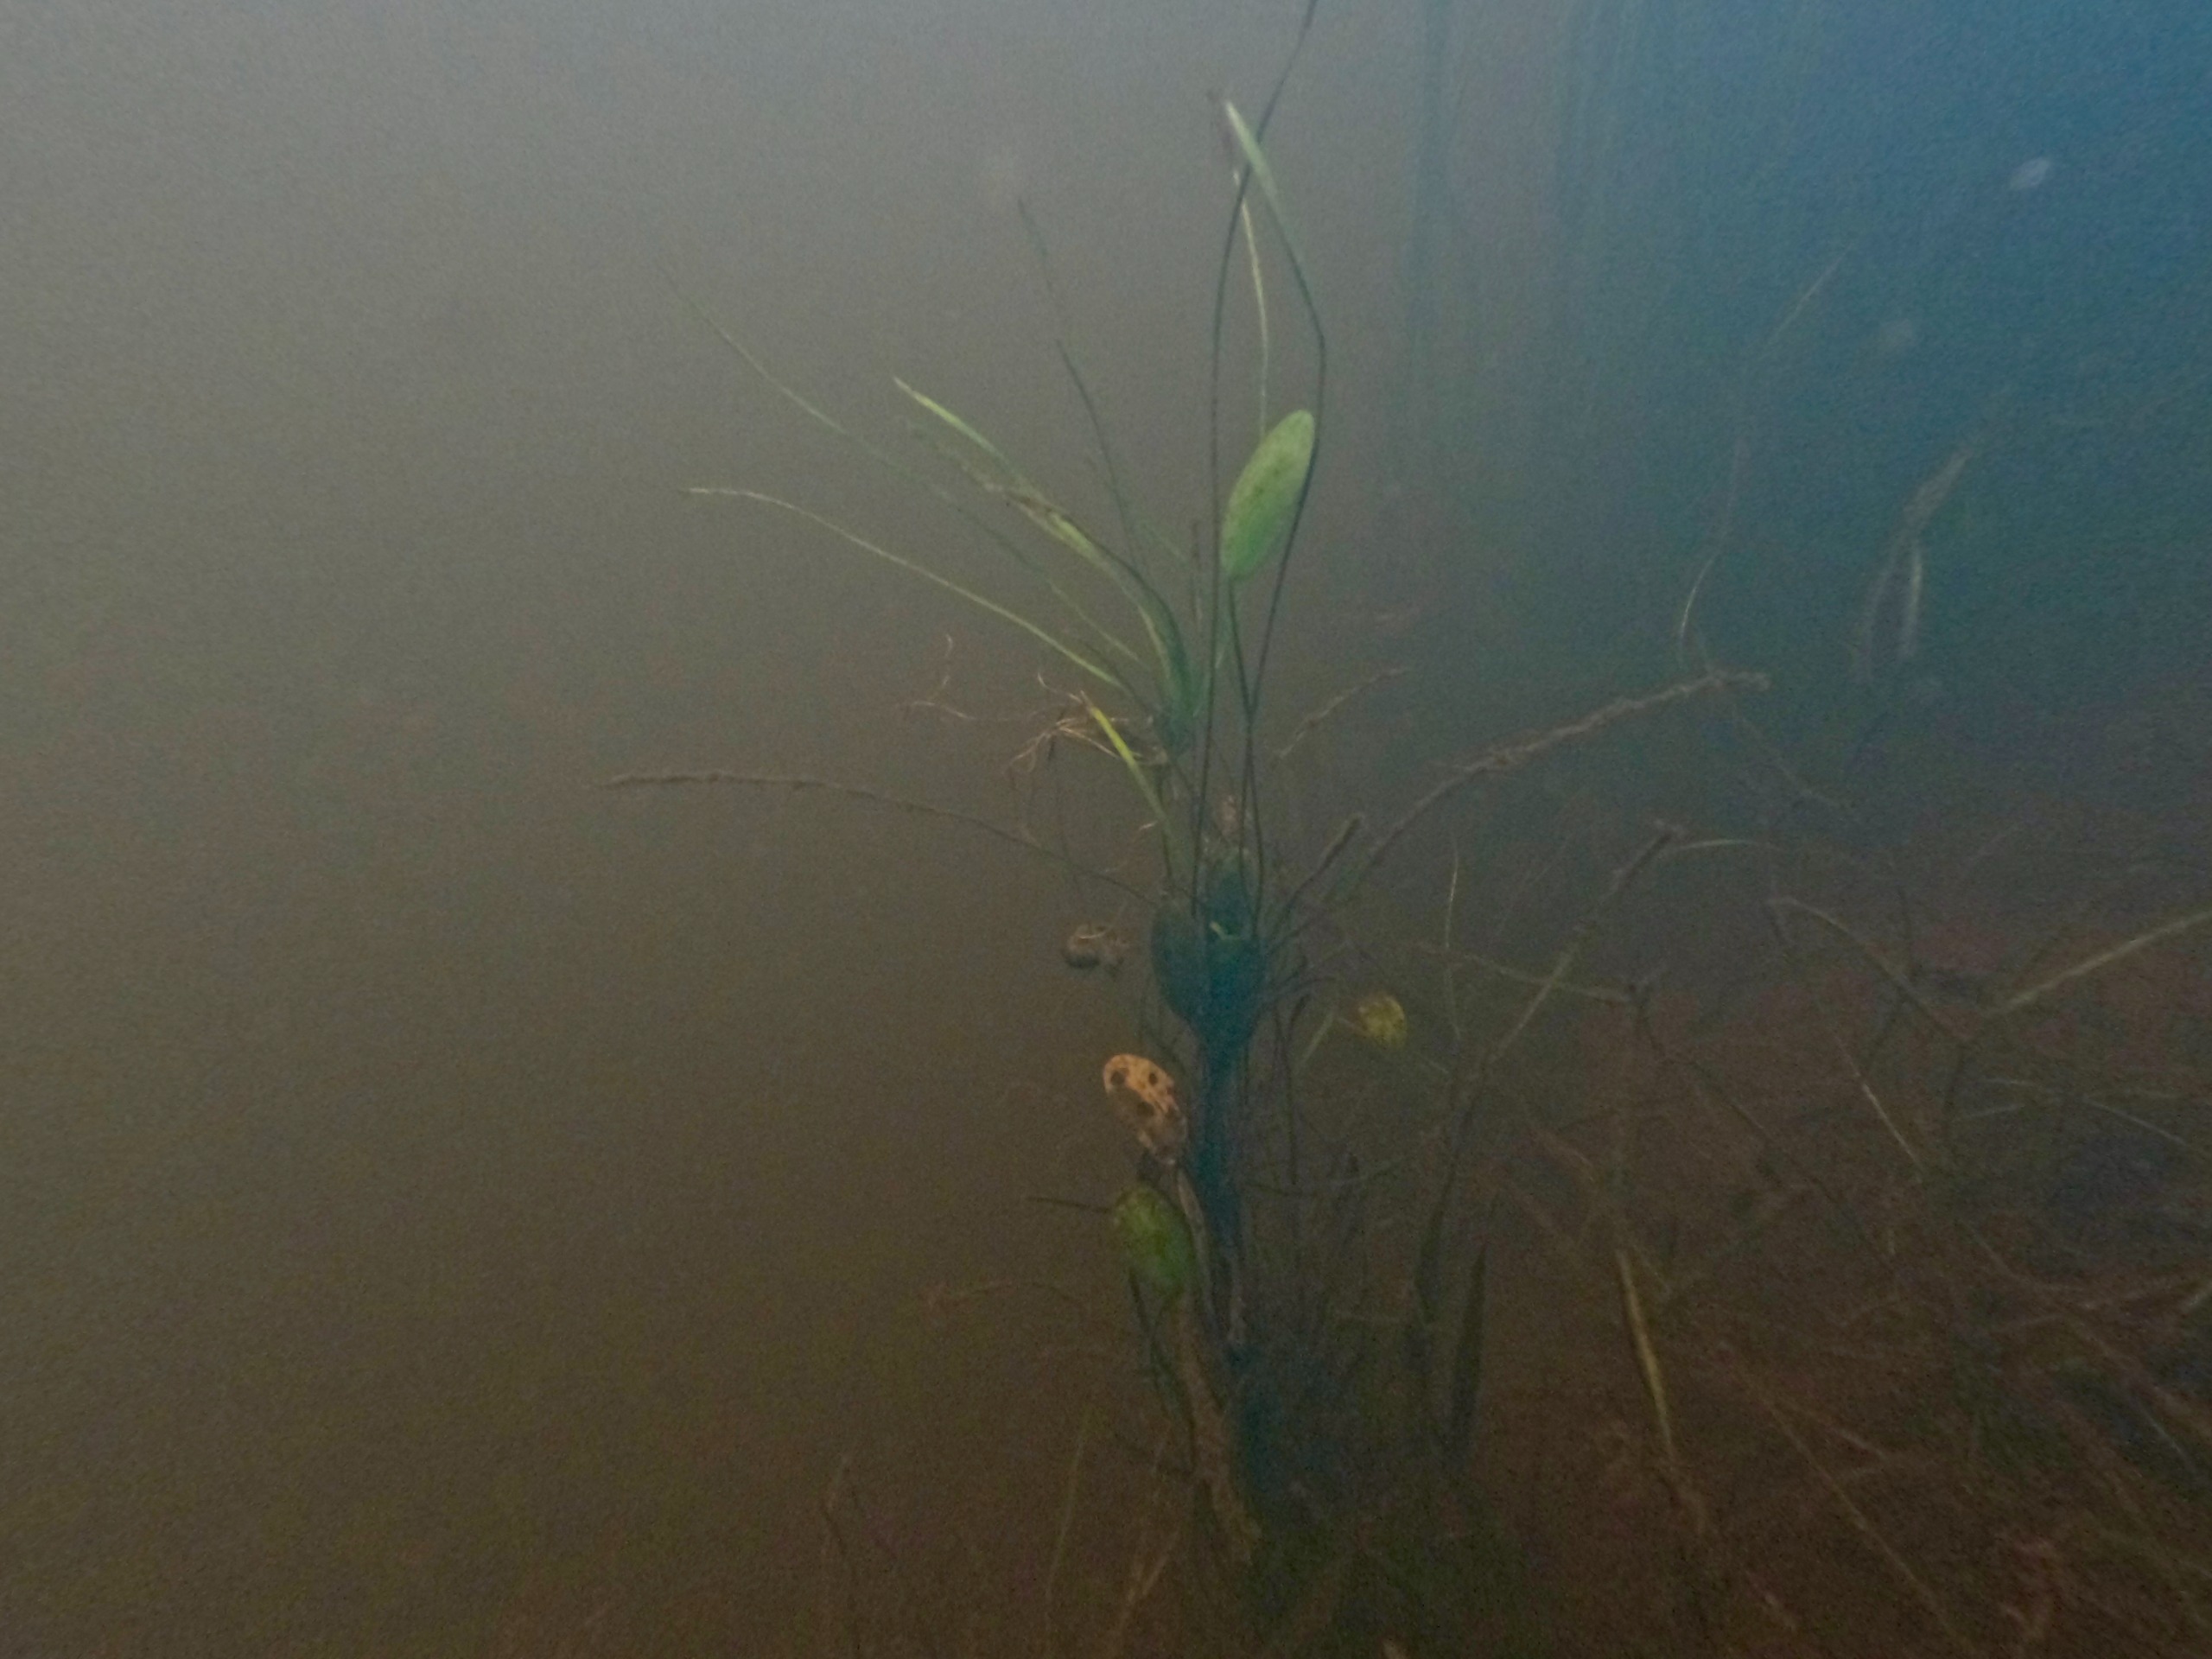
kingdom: Plantae
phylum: Tracheophyta
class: Liliopsida
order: Alismatales
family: Alismataceae
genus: Luronium
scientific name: Luronium natans
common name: Vandranke
